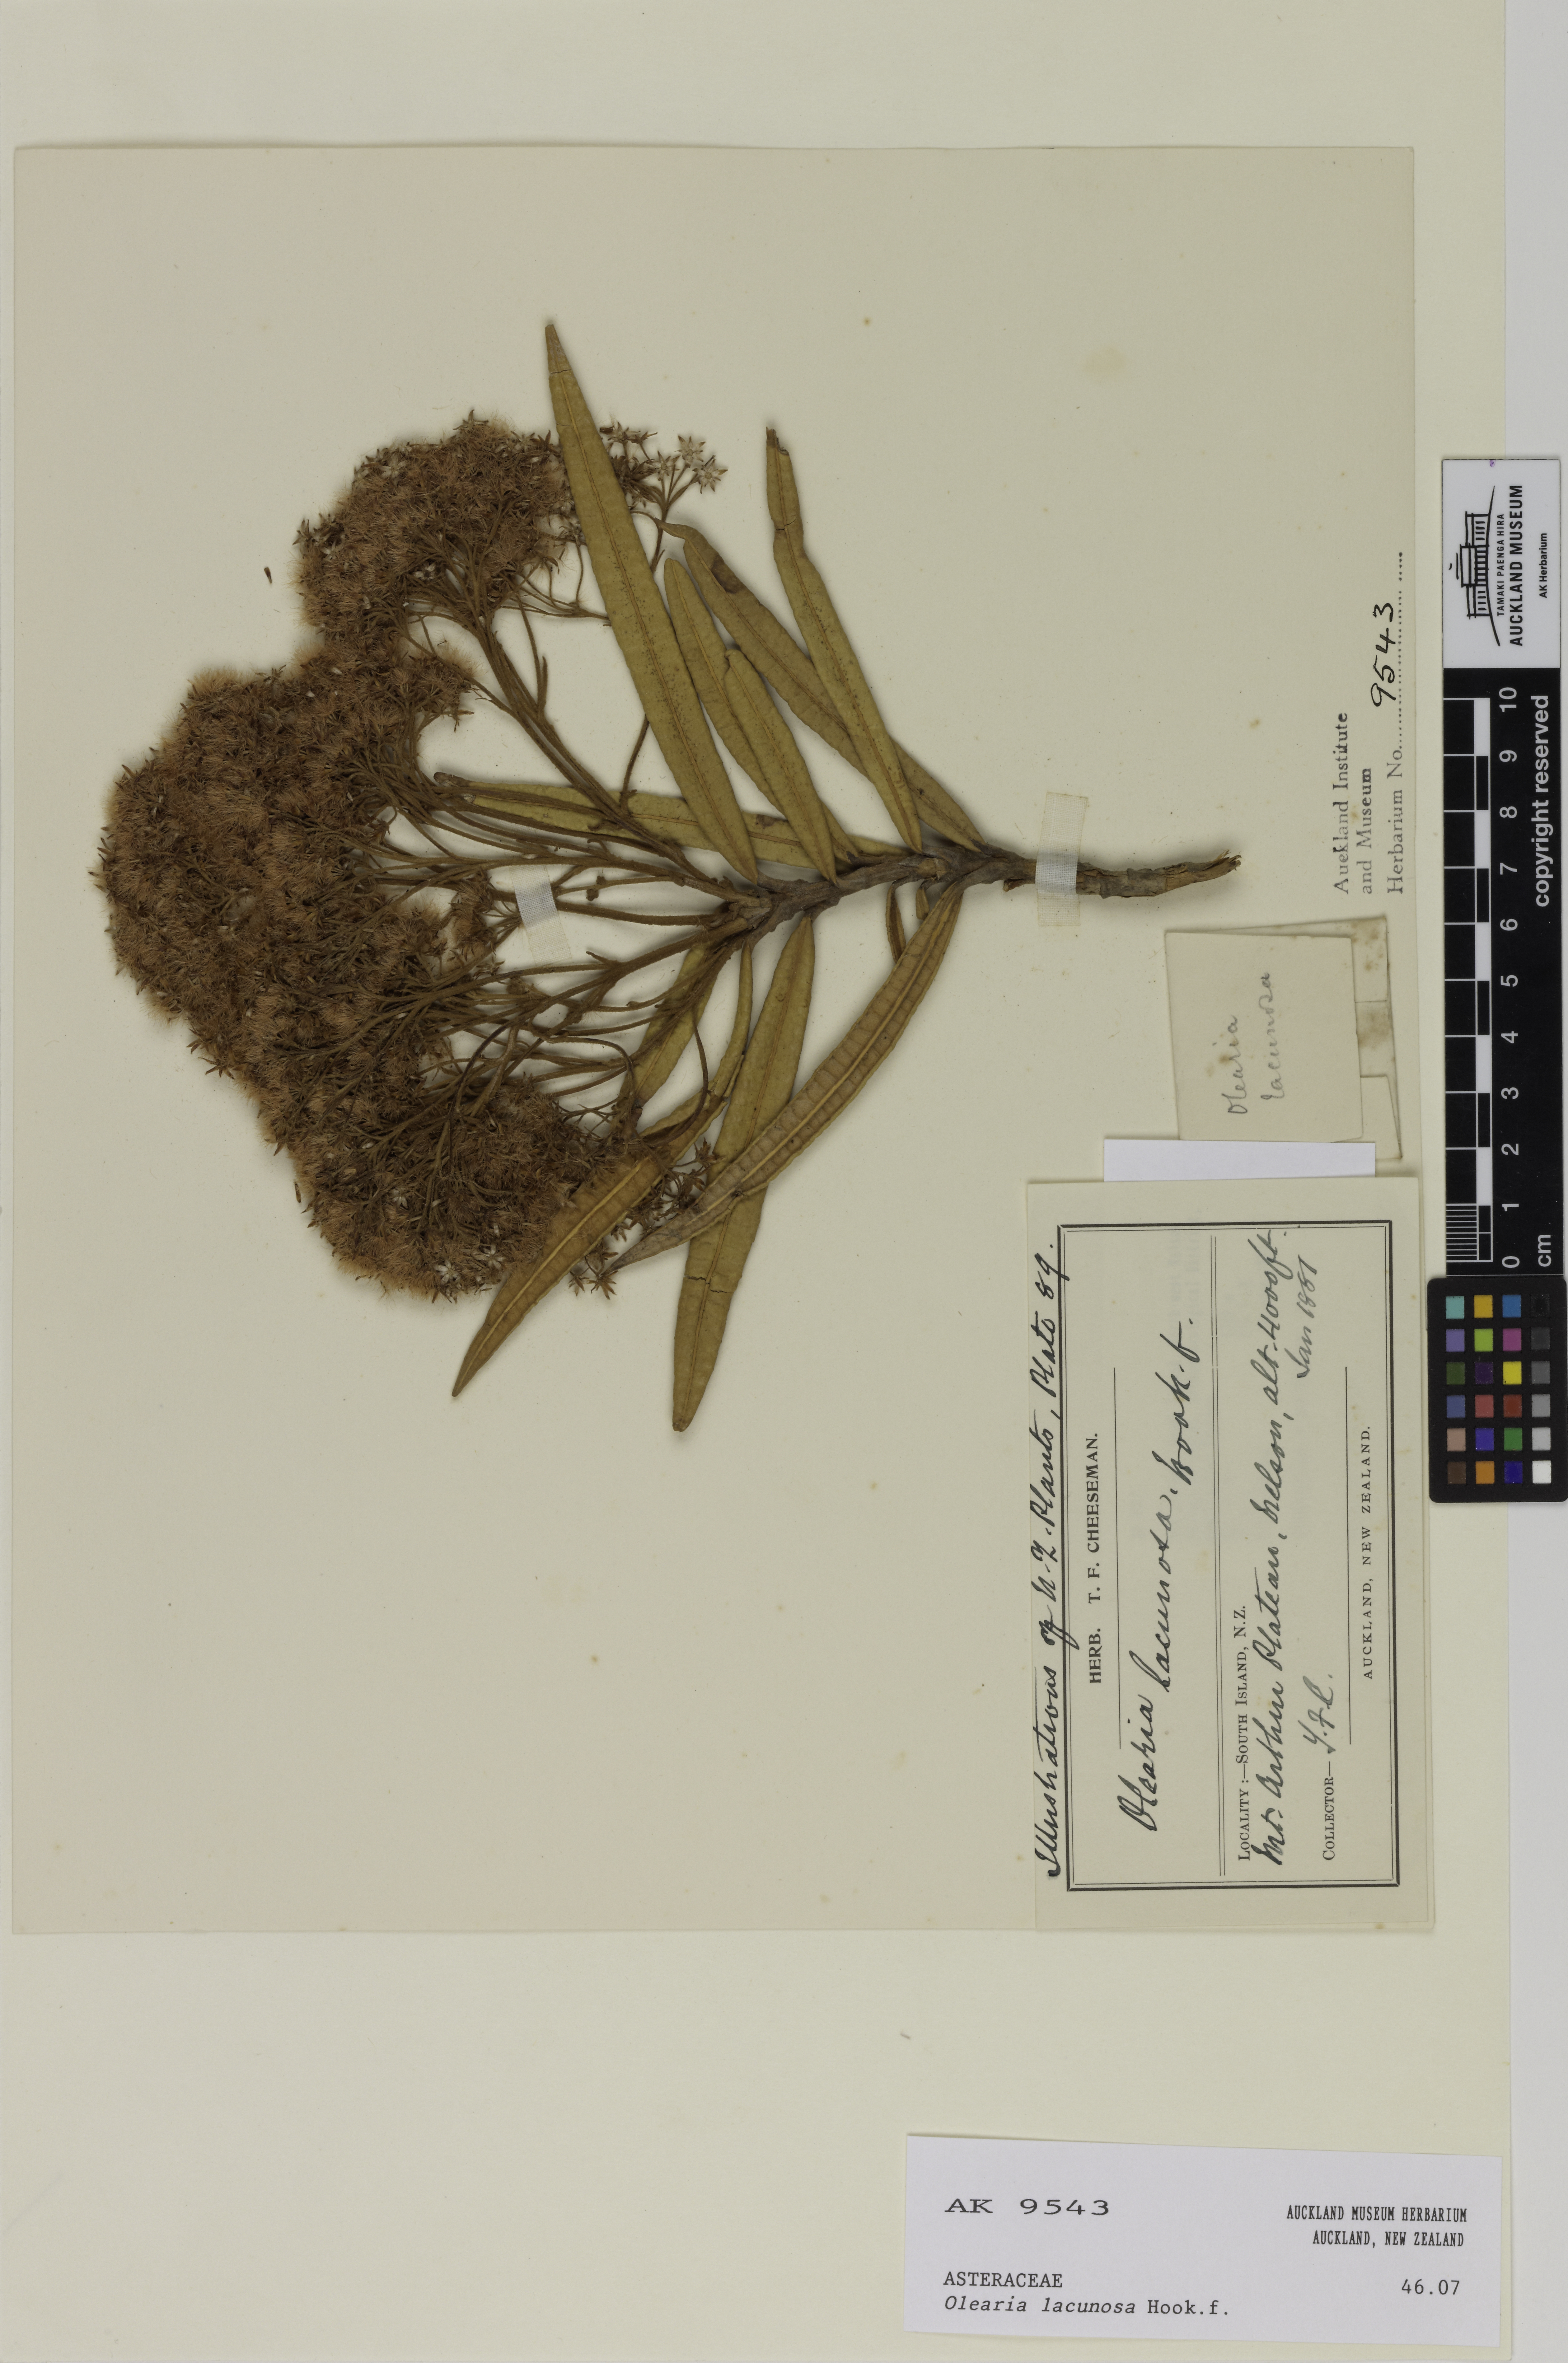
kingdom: Plantae
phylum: Tracheophyta
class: Magnoliopsida
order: Asterales
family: Asteraceae
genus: Olearia
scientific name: Olearia lacunosa
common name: Lancewood tree daisy
